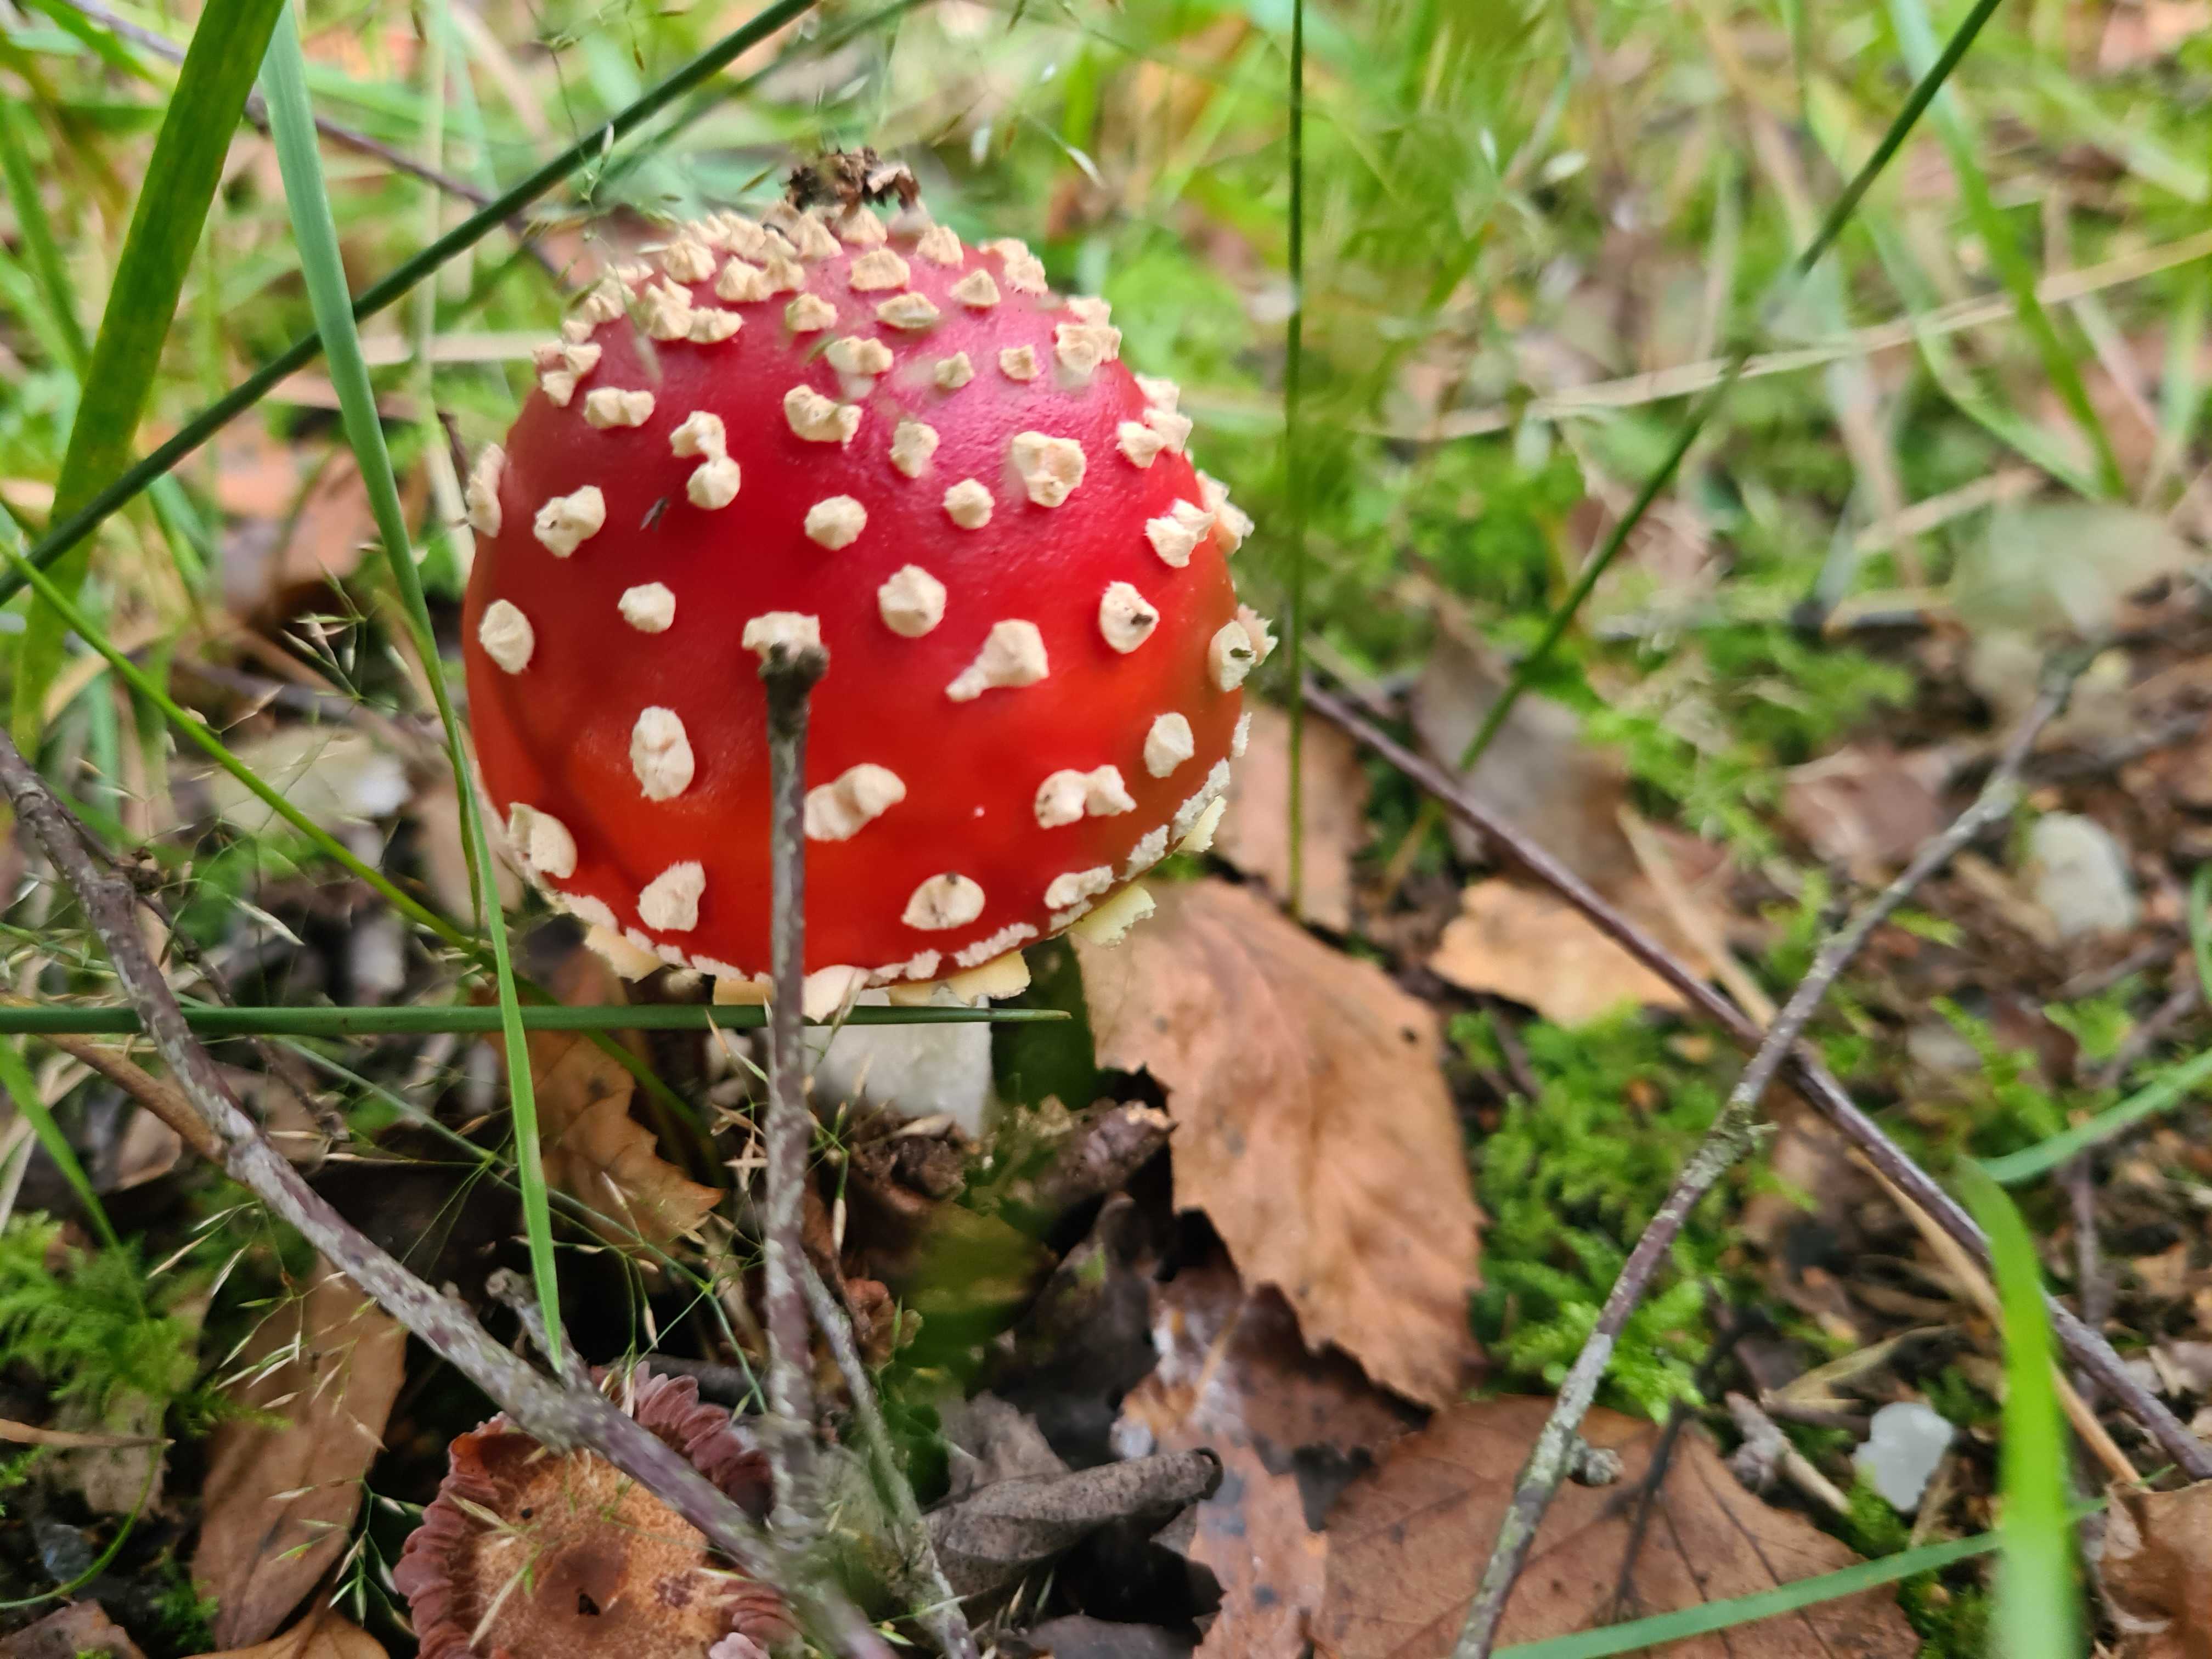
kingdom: Fungi
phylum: Basidiomycota
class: Agaricomycetes
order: Agaricales
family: Amanitaceae
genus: Amanita
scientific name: Amanita muscaria
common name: rød fluesvamp
